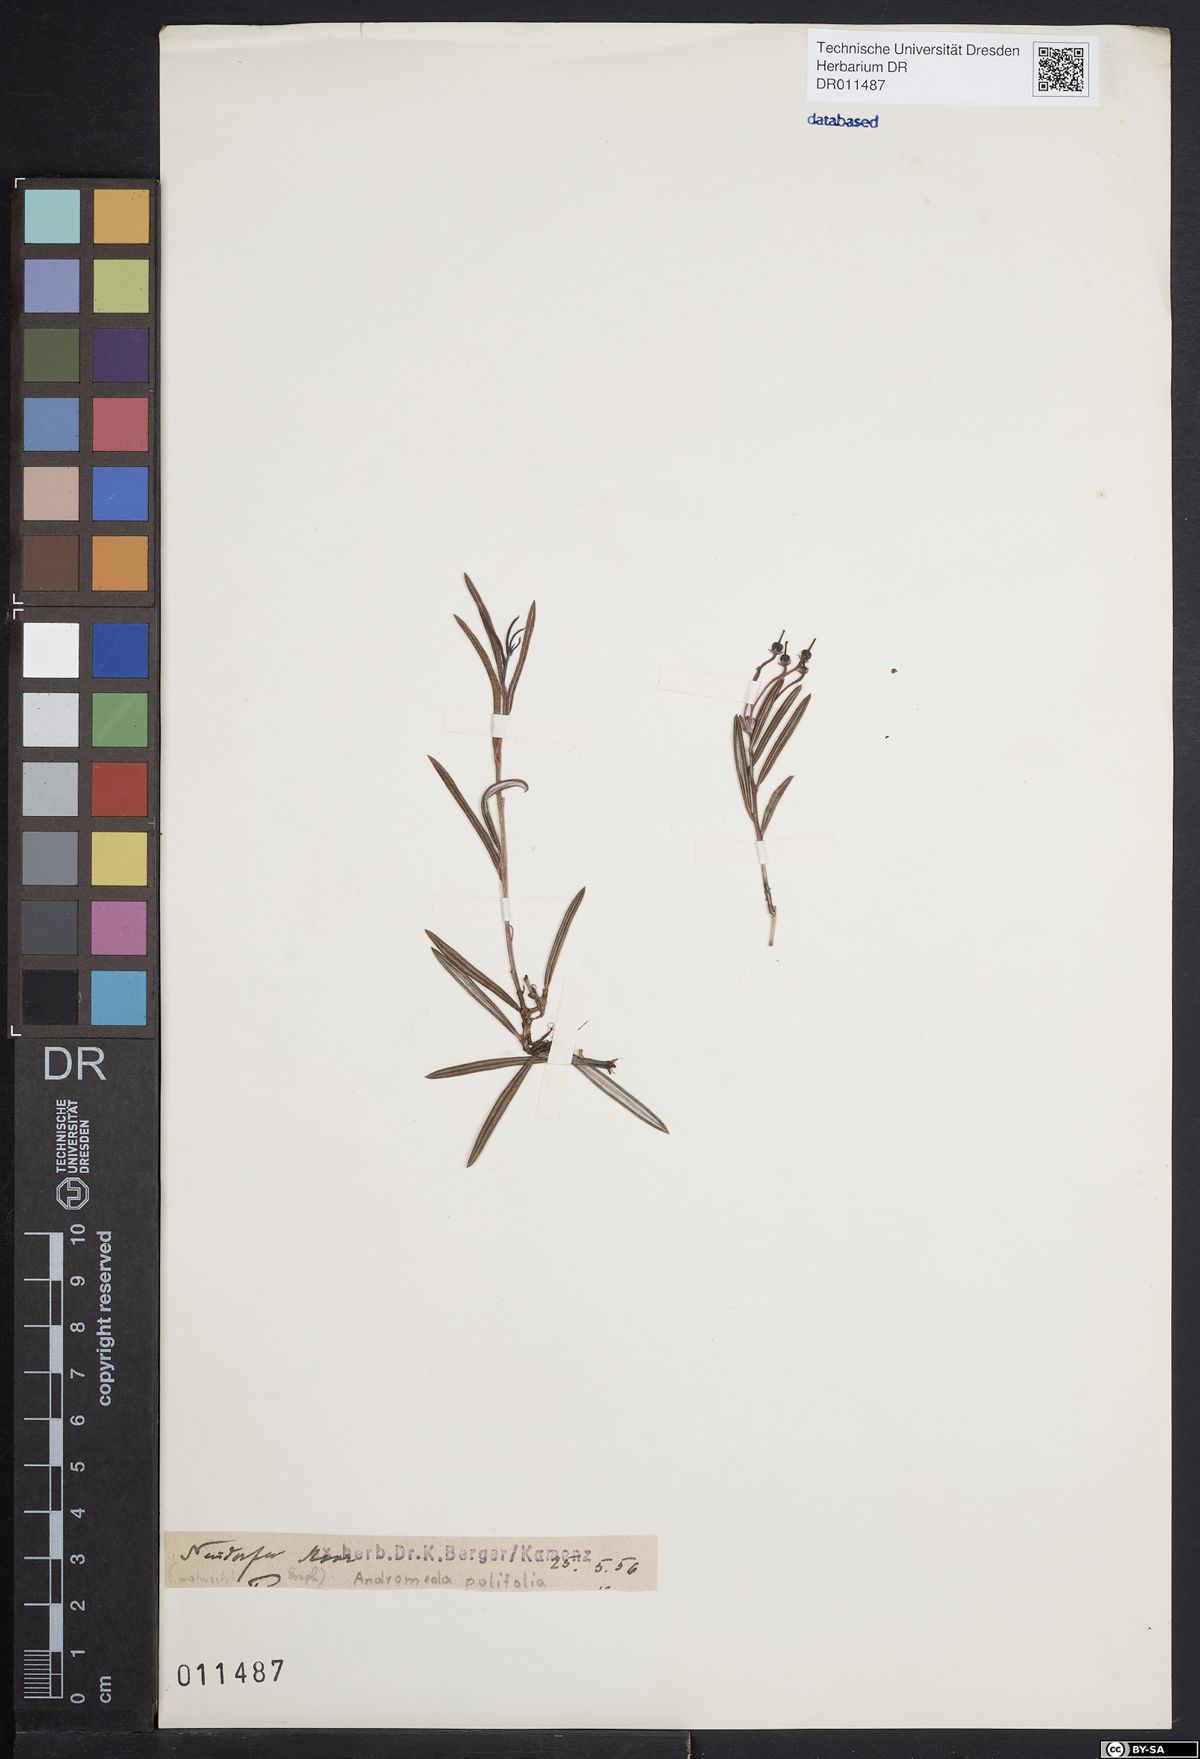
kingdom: Plantae
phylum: Tracheophyta
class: Magnoliopsida
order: Ericales
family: Ericaceae
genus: Andromeda
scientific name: Andromeda polifolia
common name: Bog-rosemary
